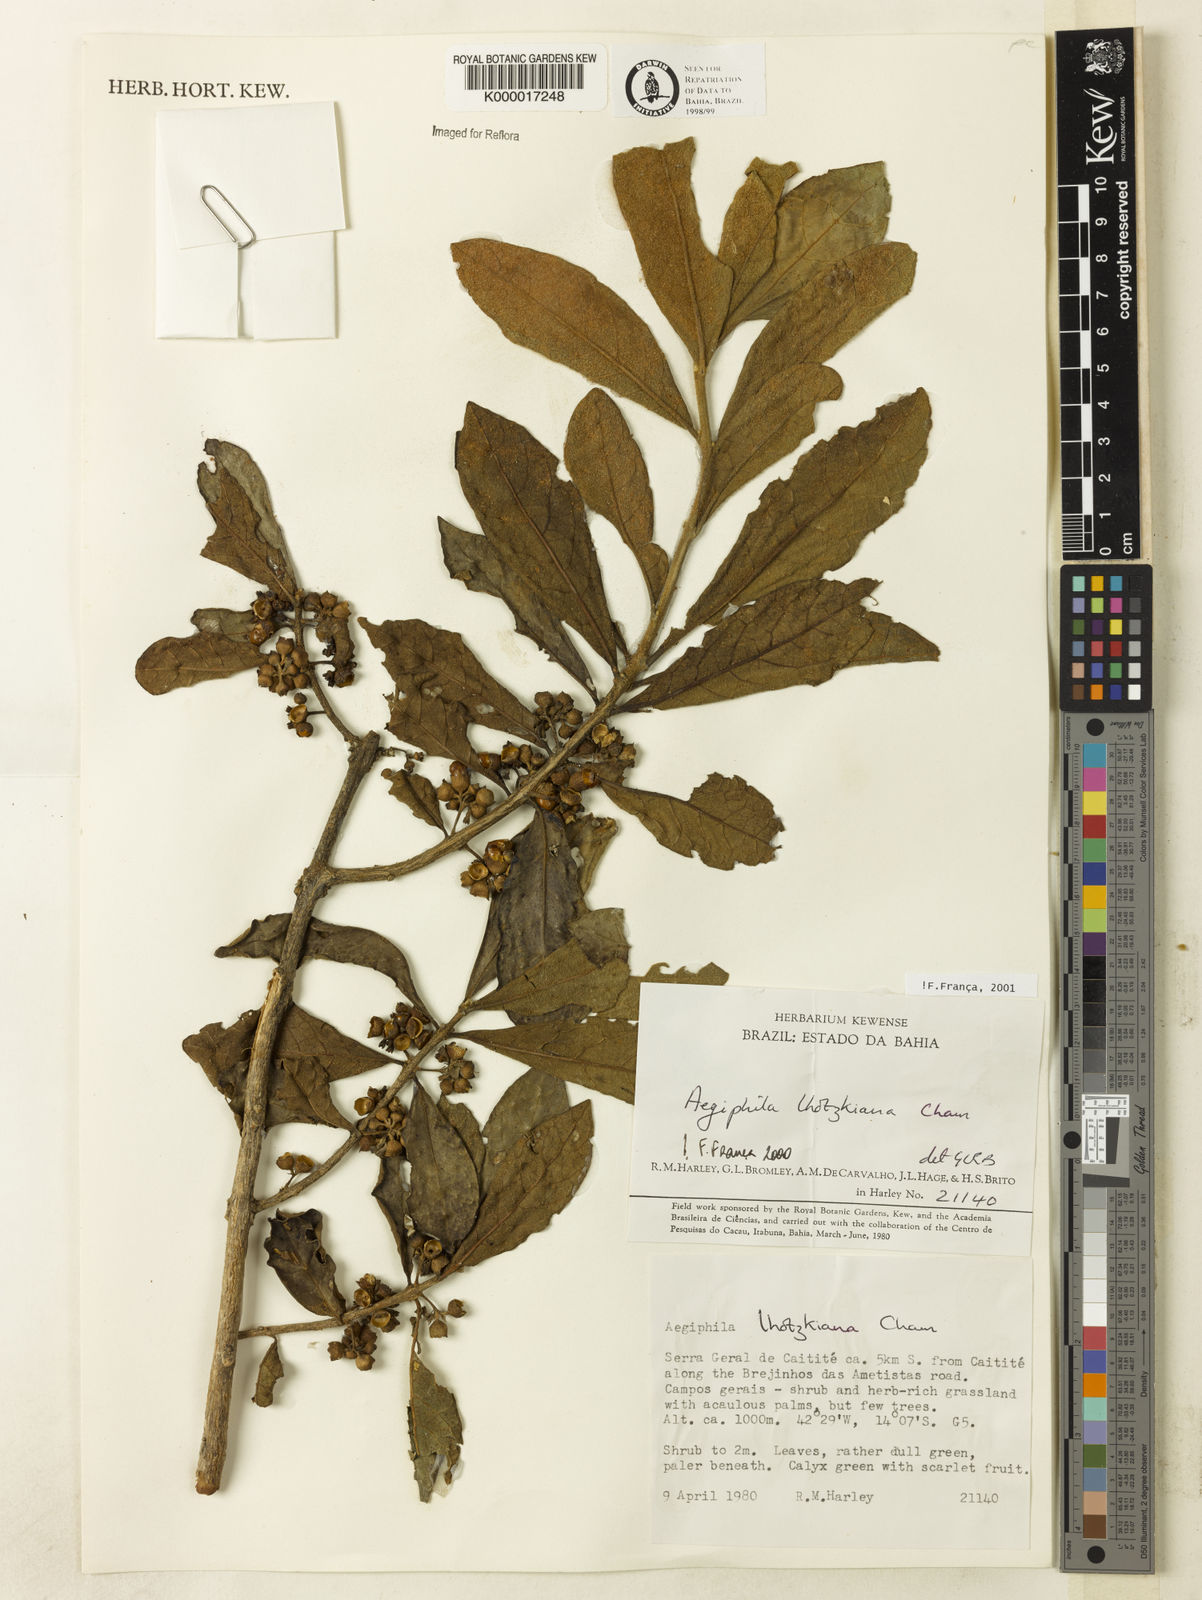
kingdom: Plantae
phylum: Tracheophyta
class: Magnoliopsida
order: Lamiales
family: Lamiaceae
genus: Aegiphila
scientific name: Aegiphila verticillata
